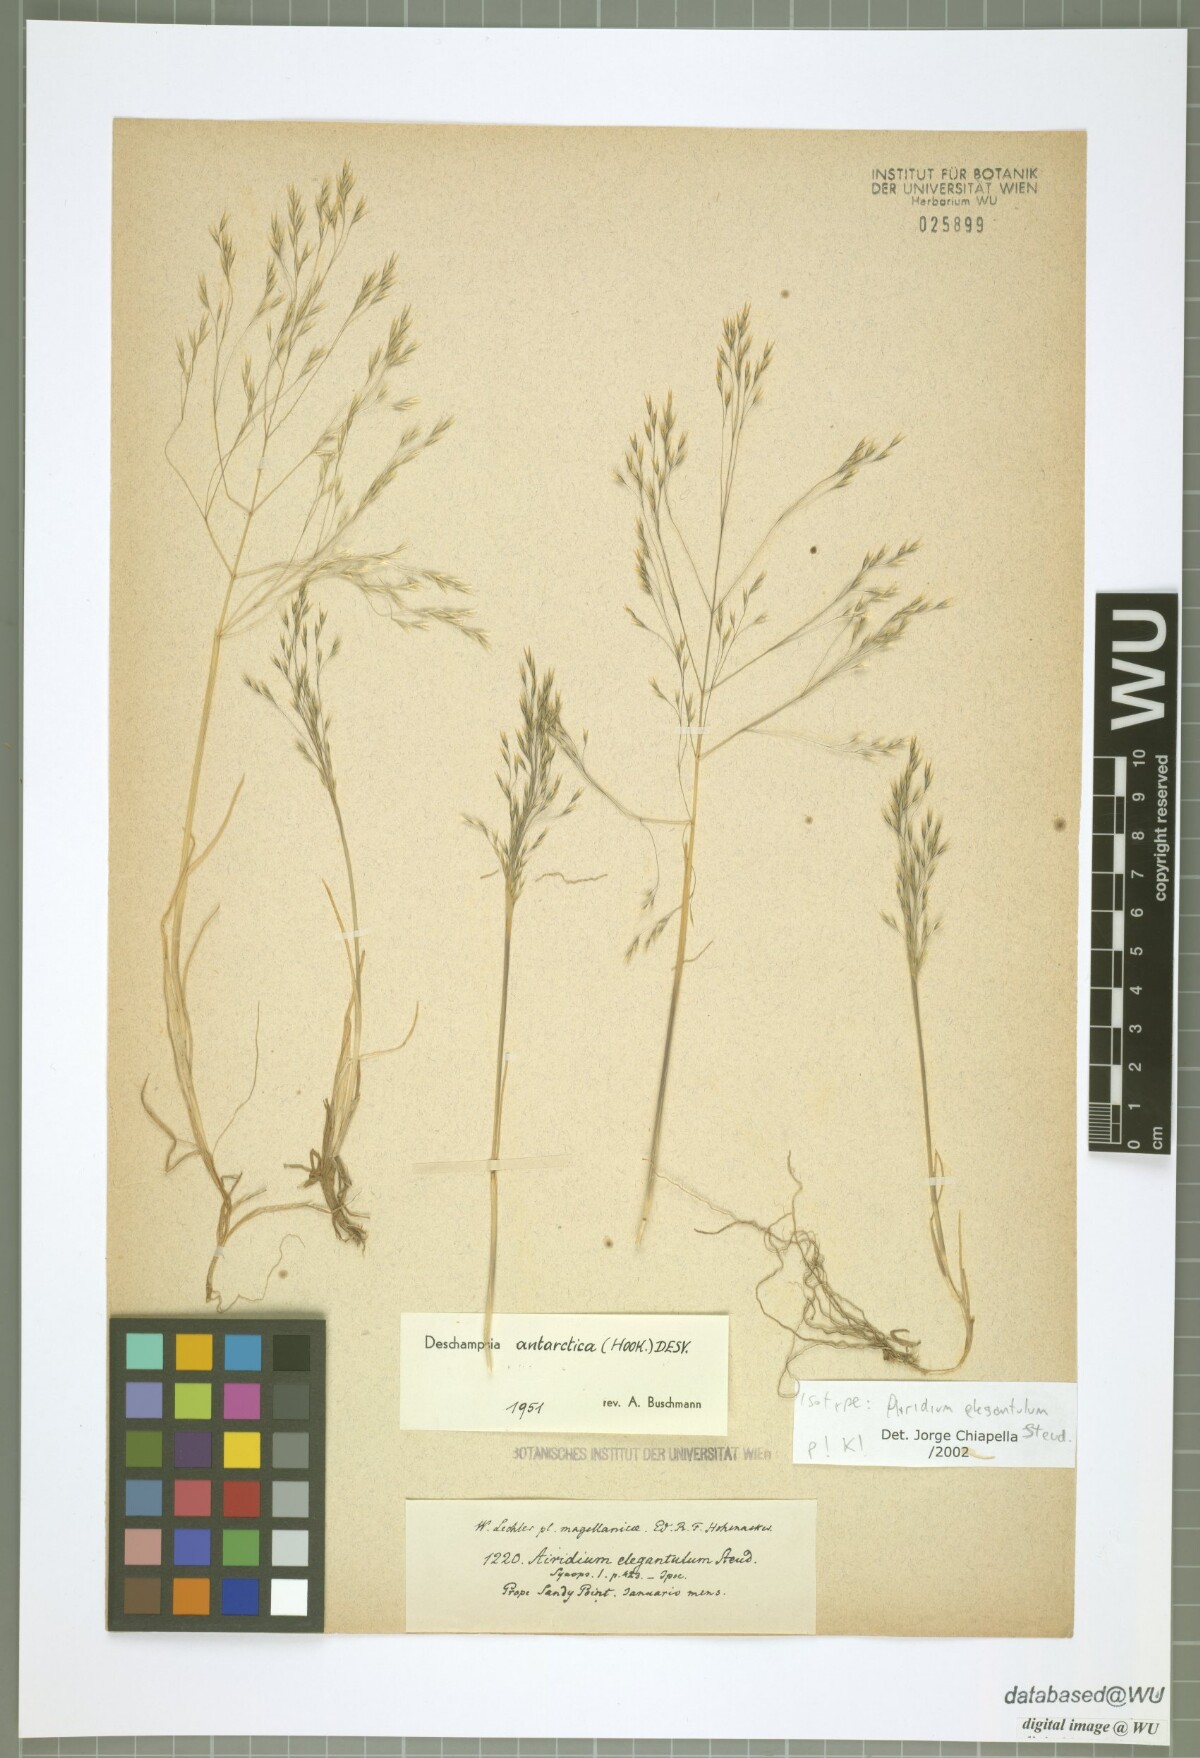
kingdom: Plantae
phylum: Tracheophyta
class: Liliopsida
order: Poales
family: Poaceae
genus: Deschampsia
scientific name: Deschampsia antarctica
